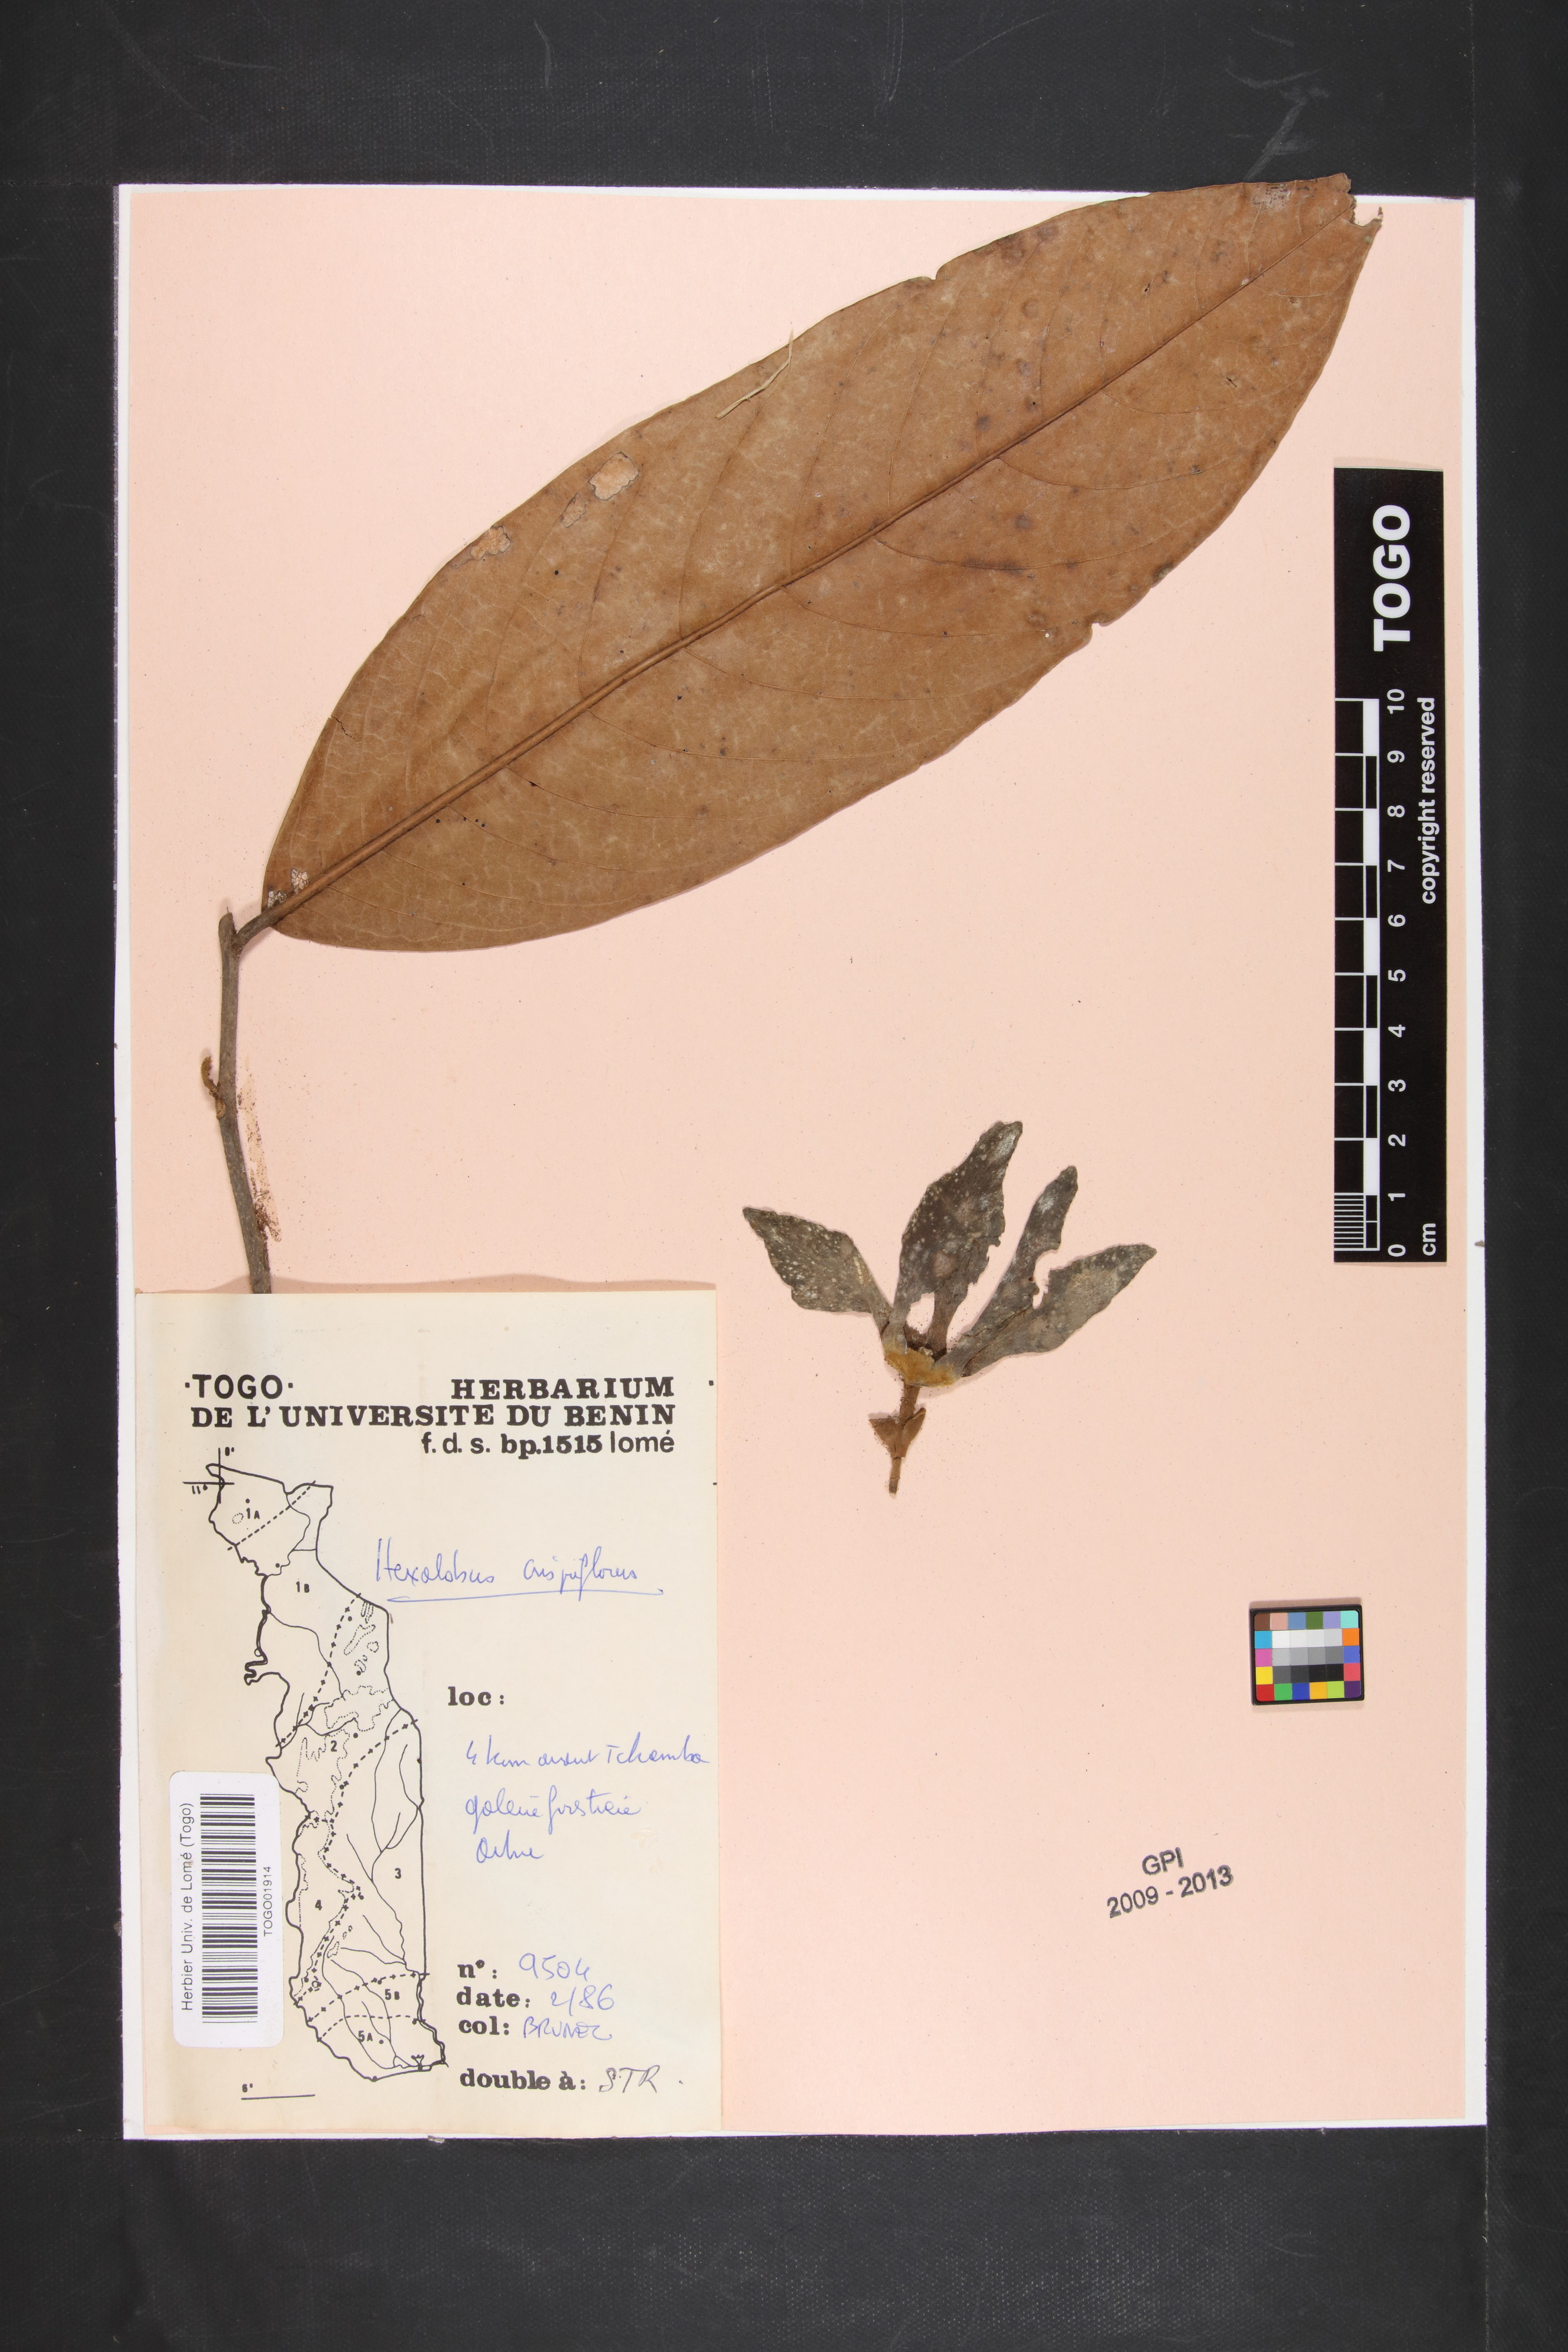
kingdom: Plantae
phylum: Tracheophyta
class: Magnoliopsida
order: Magnoliales
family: Annonaceae
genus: Hexalobus
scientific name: Hexalobus crispiflorus
